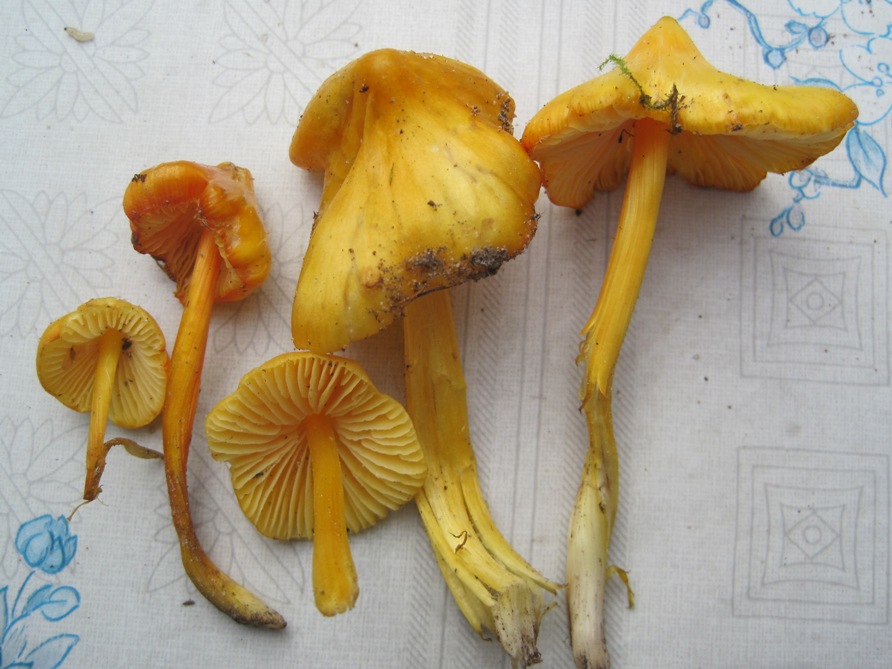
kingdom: Fungi
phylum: Basidiomycota
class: Agaricomycetes
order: Agaricales
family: Hygrophoraceae
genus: Hygrocybe
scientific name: Hygrocybe acutoconica
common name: spidspuklet vokshat
